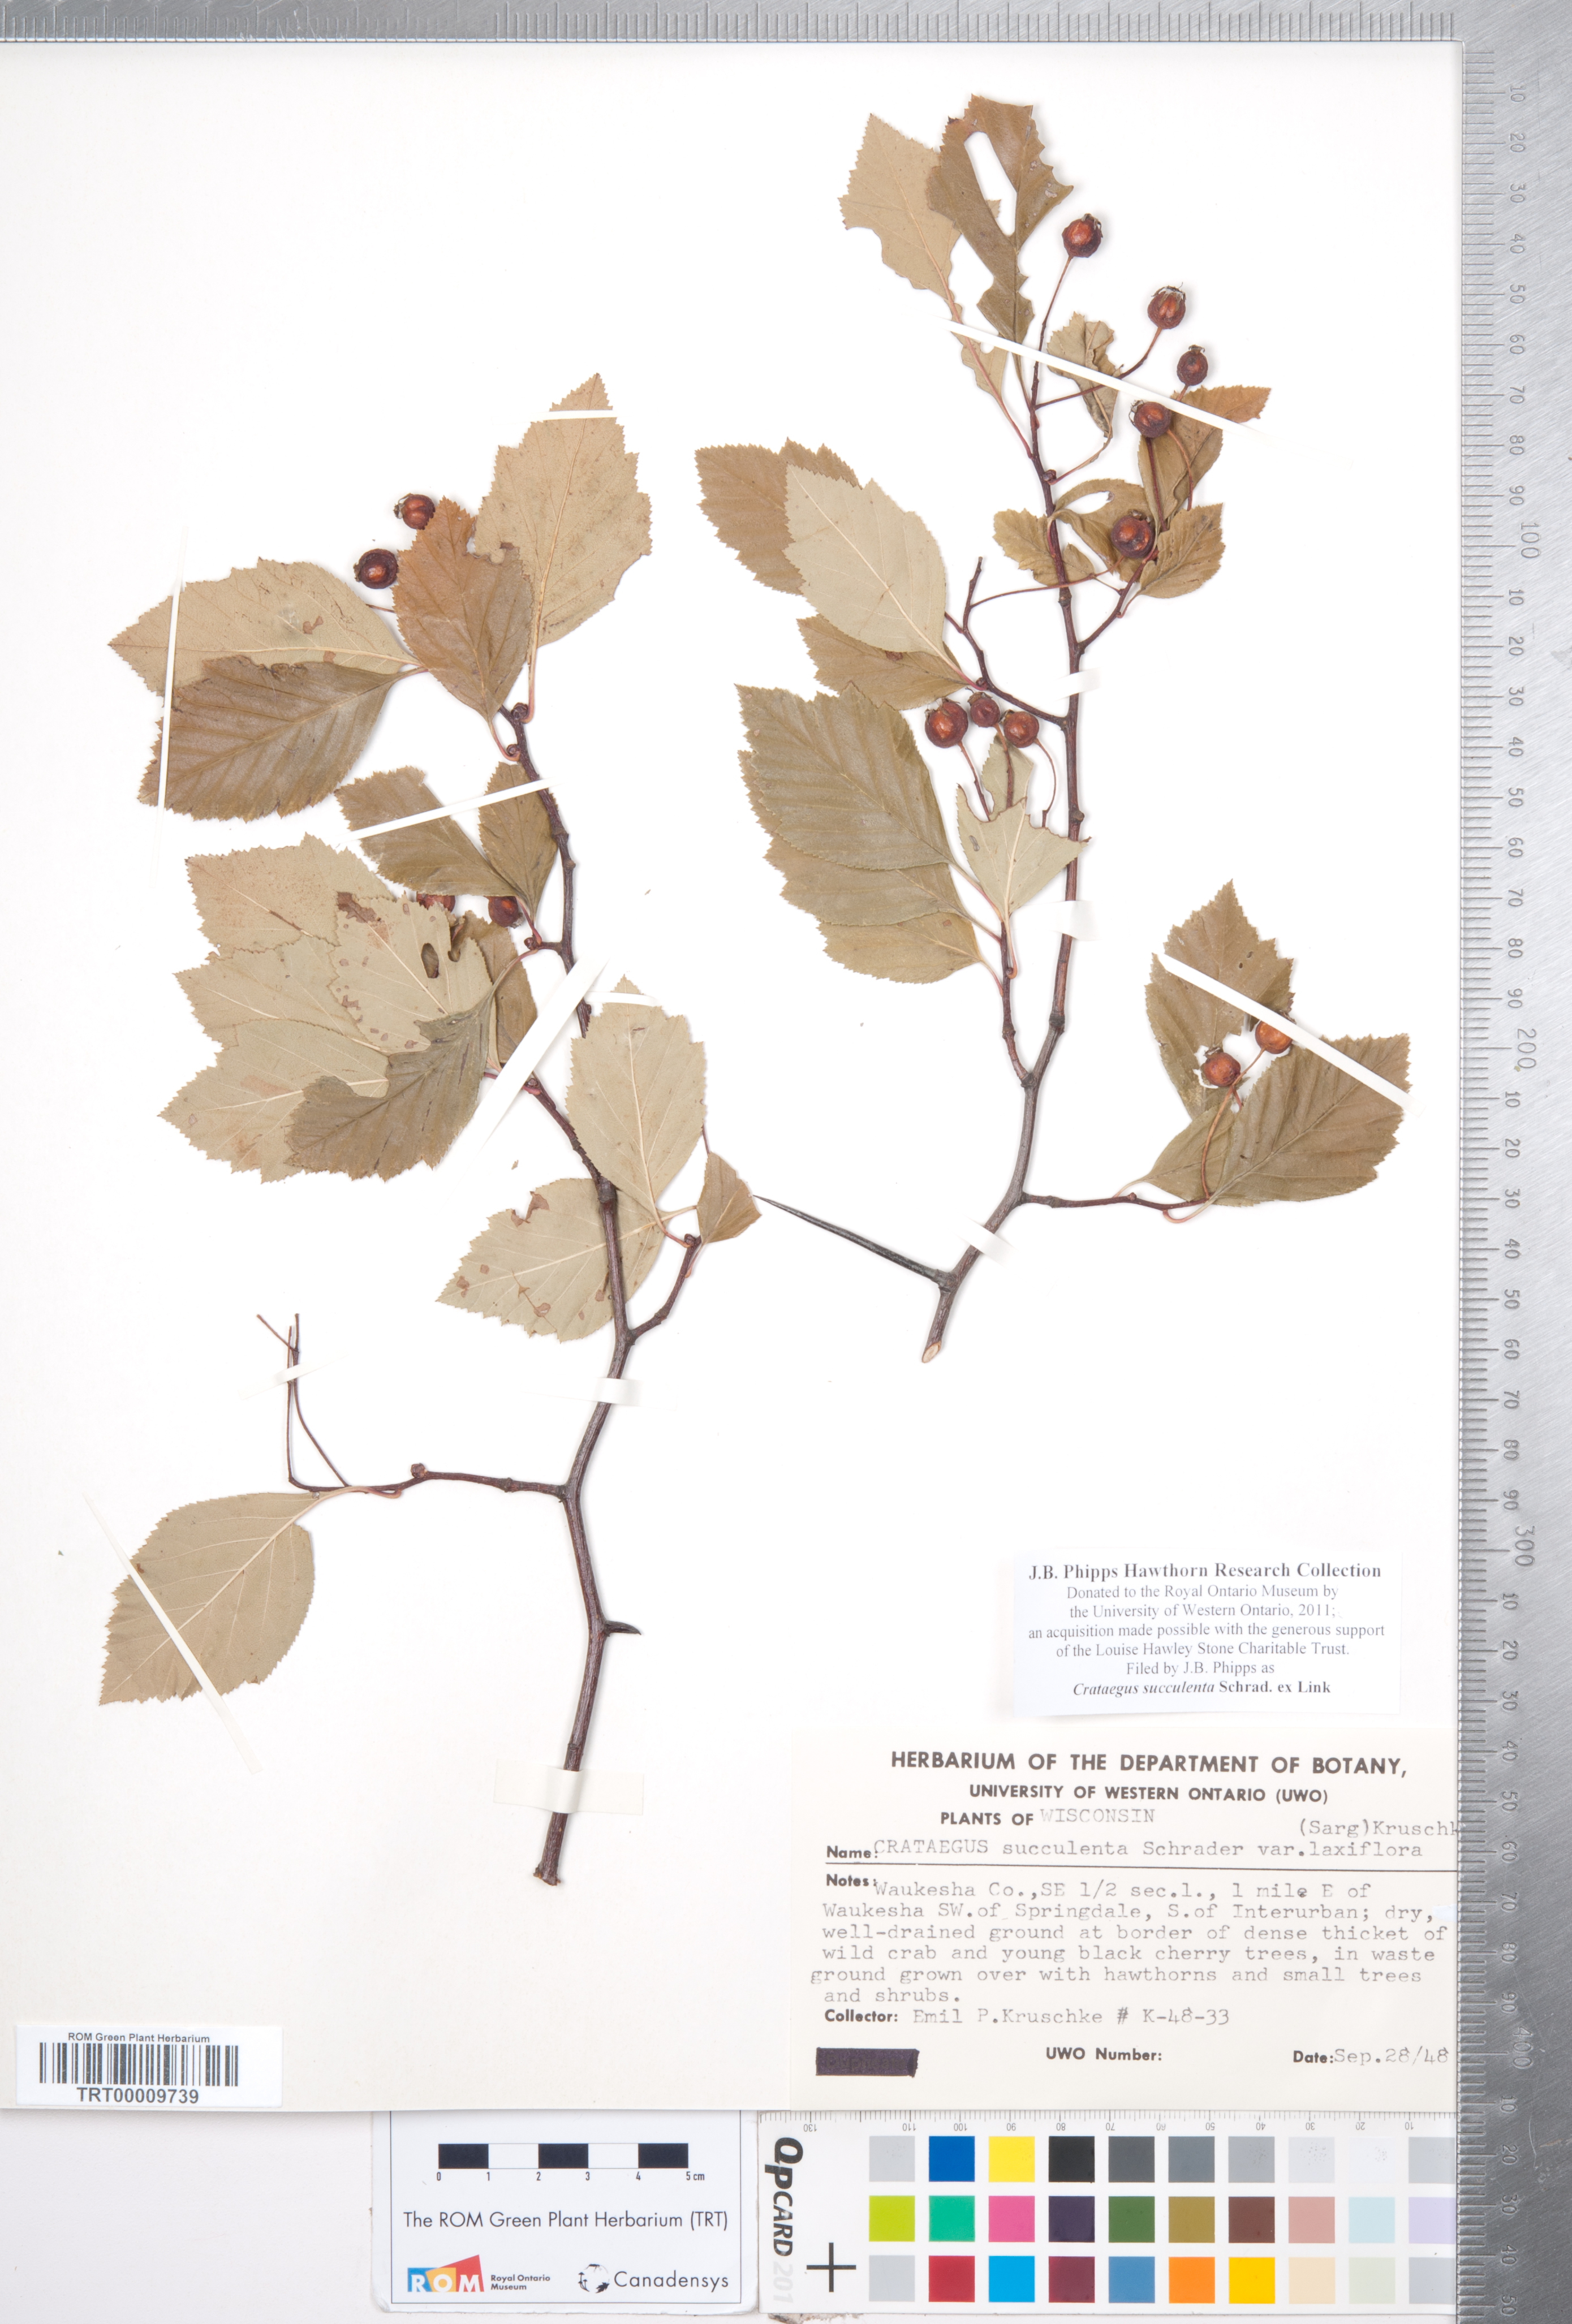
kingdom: Plantae
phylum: Tracheophyta
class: Magnoliopsida
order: Rosales
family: Rosaceae
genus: Crataegus
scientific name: Crataegus succulenta
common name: Fleshy hawthorn
